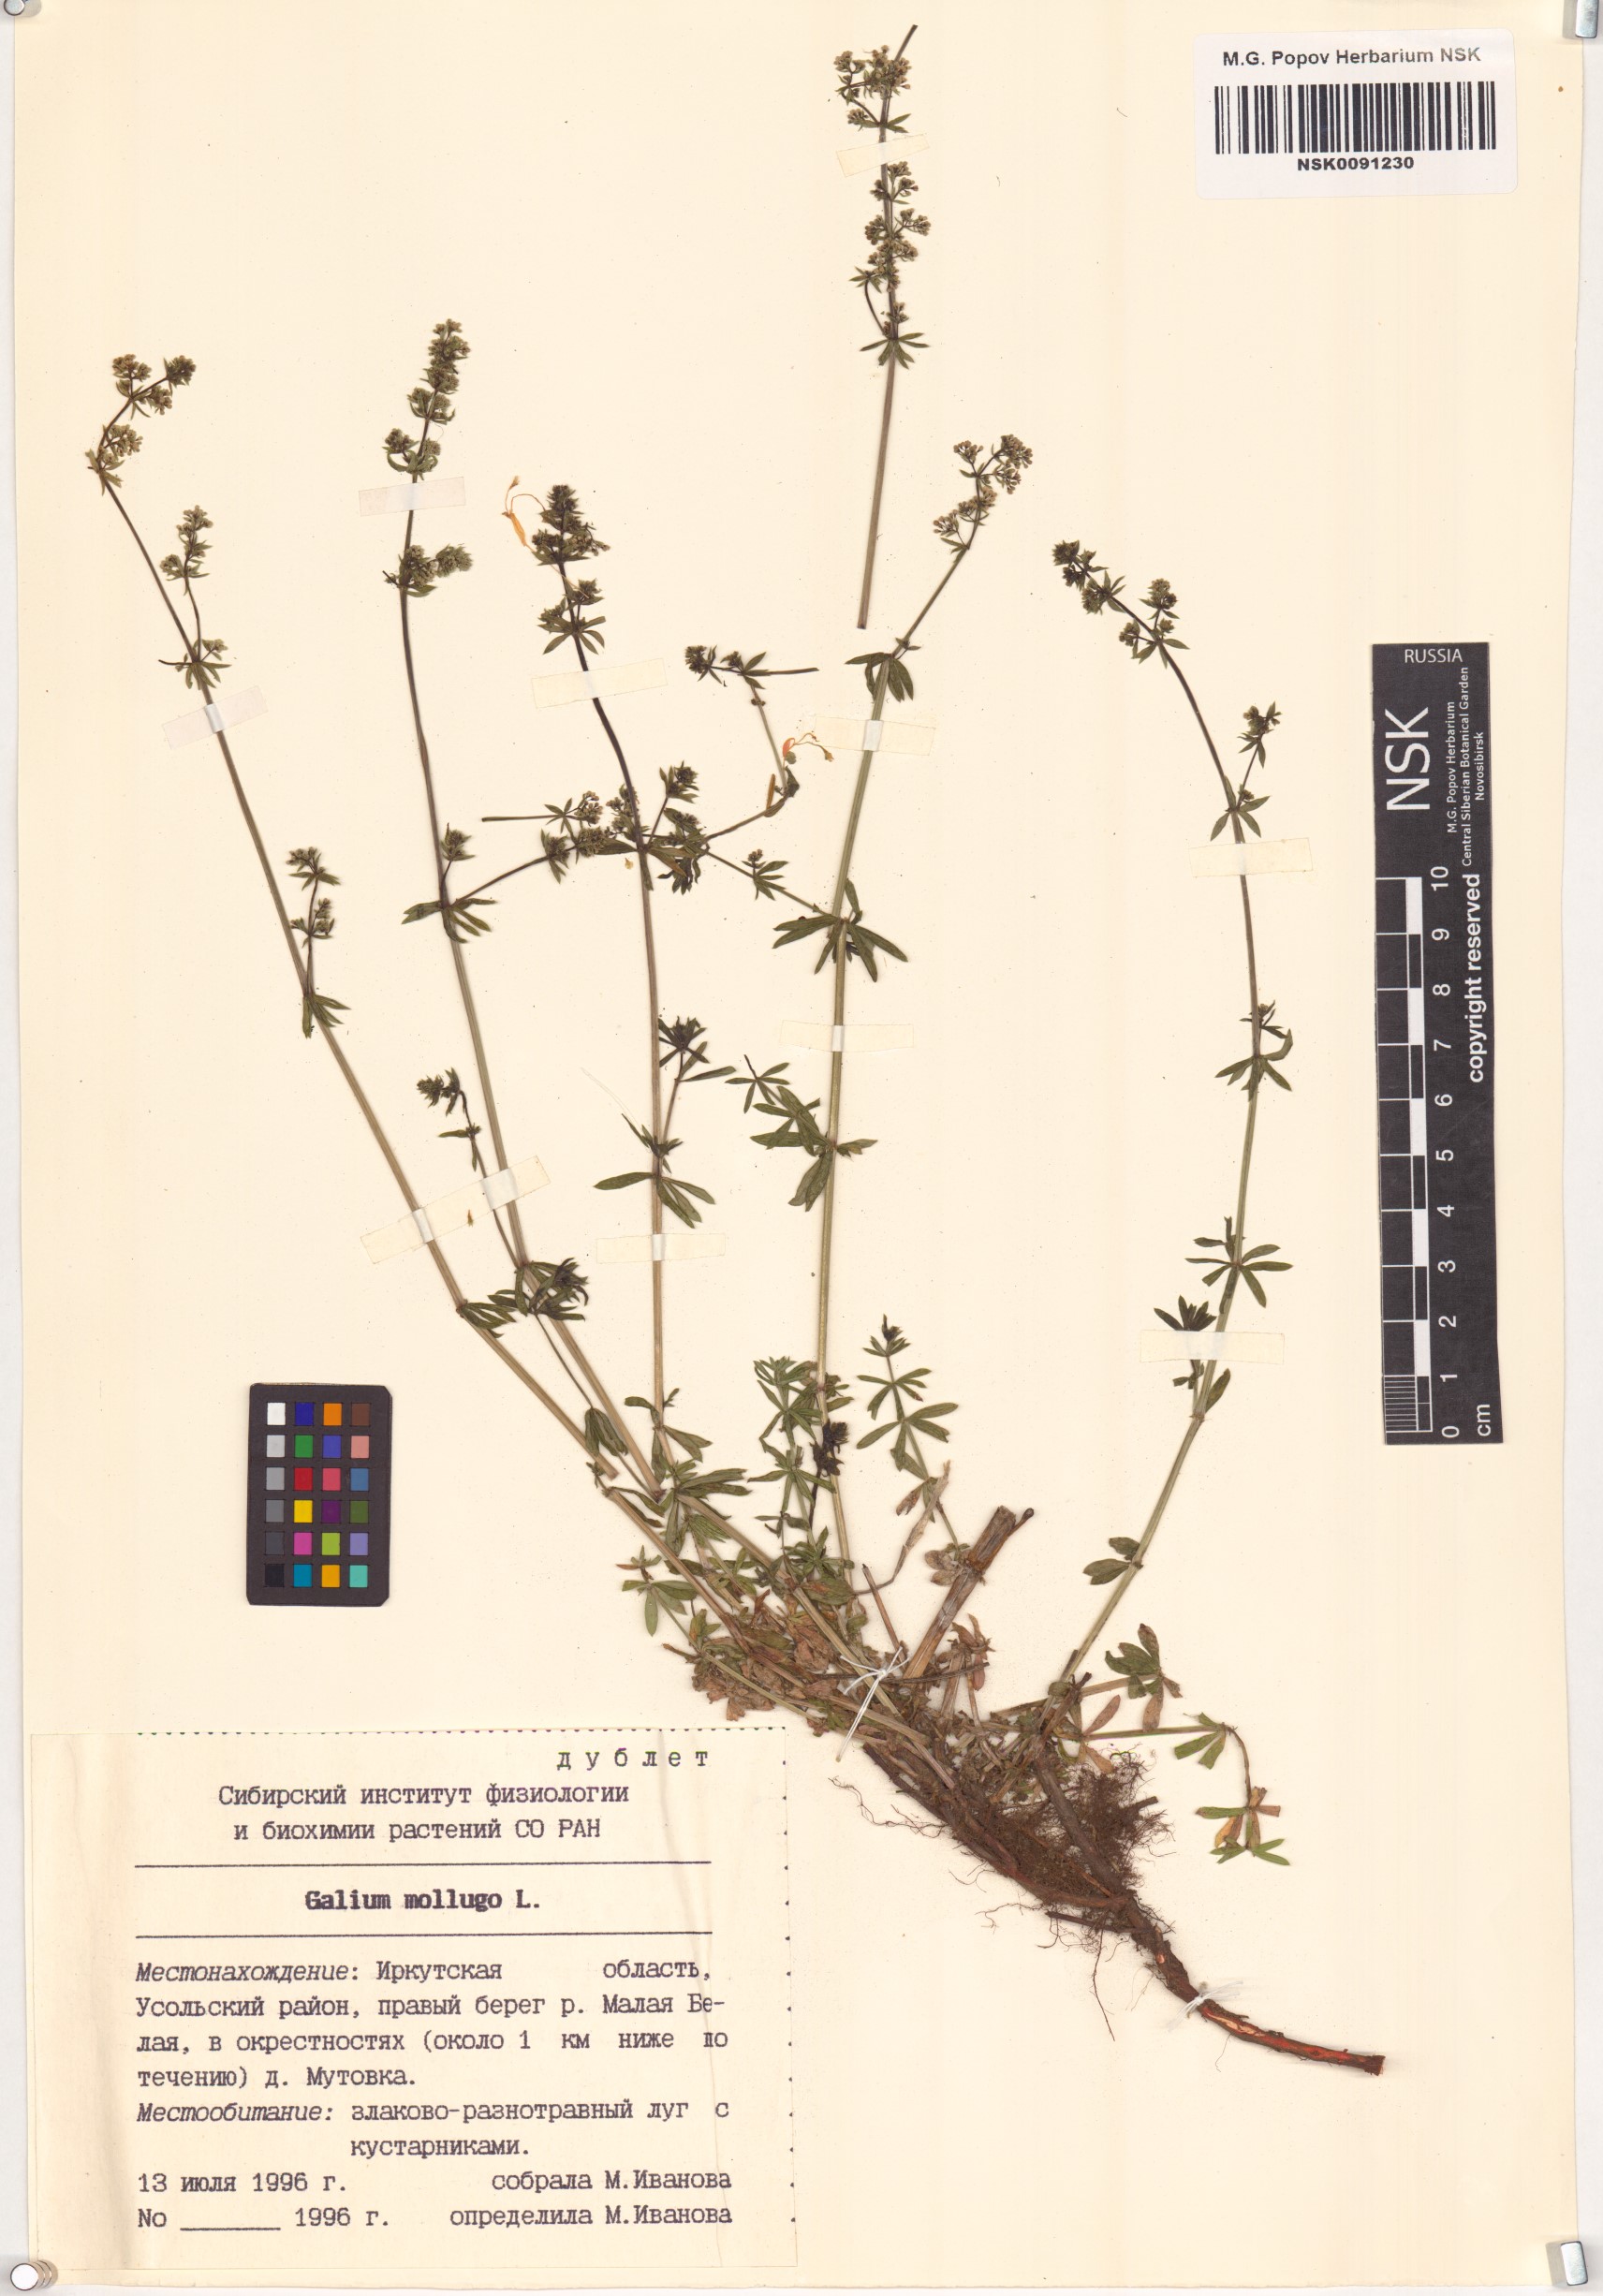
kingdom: Plantae
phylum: Tracheophyta
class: Magnoliopsida
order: Gentianales
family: Rubiaceae
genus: Galium
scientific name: Galium mollugo
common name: Hedge bedstraw
